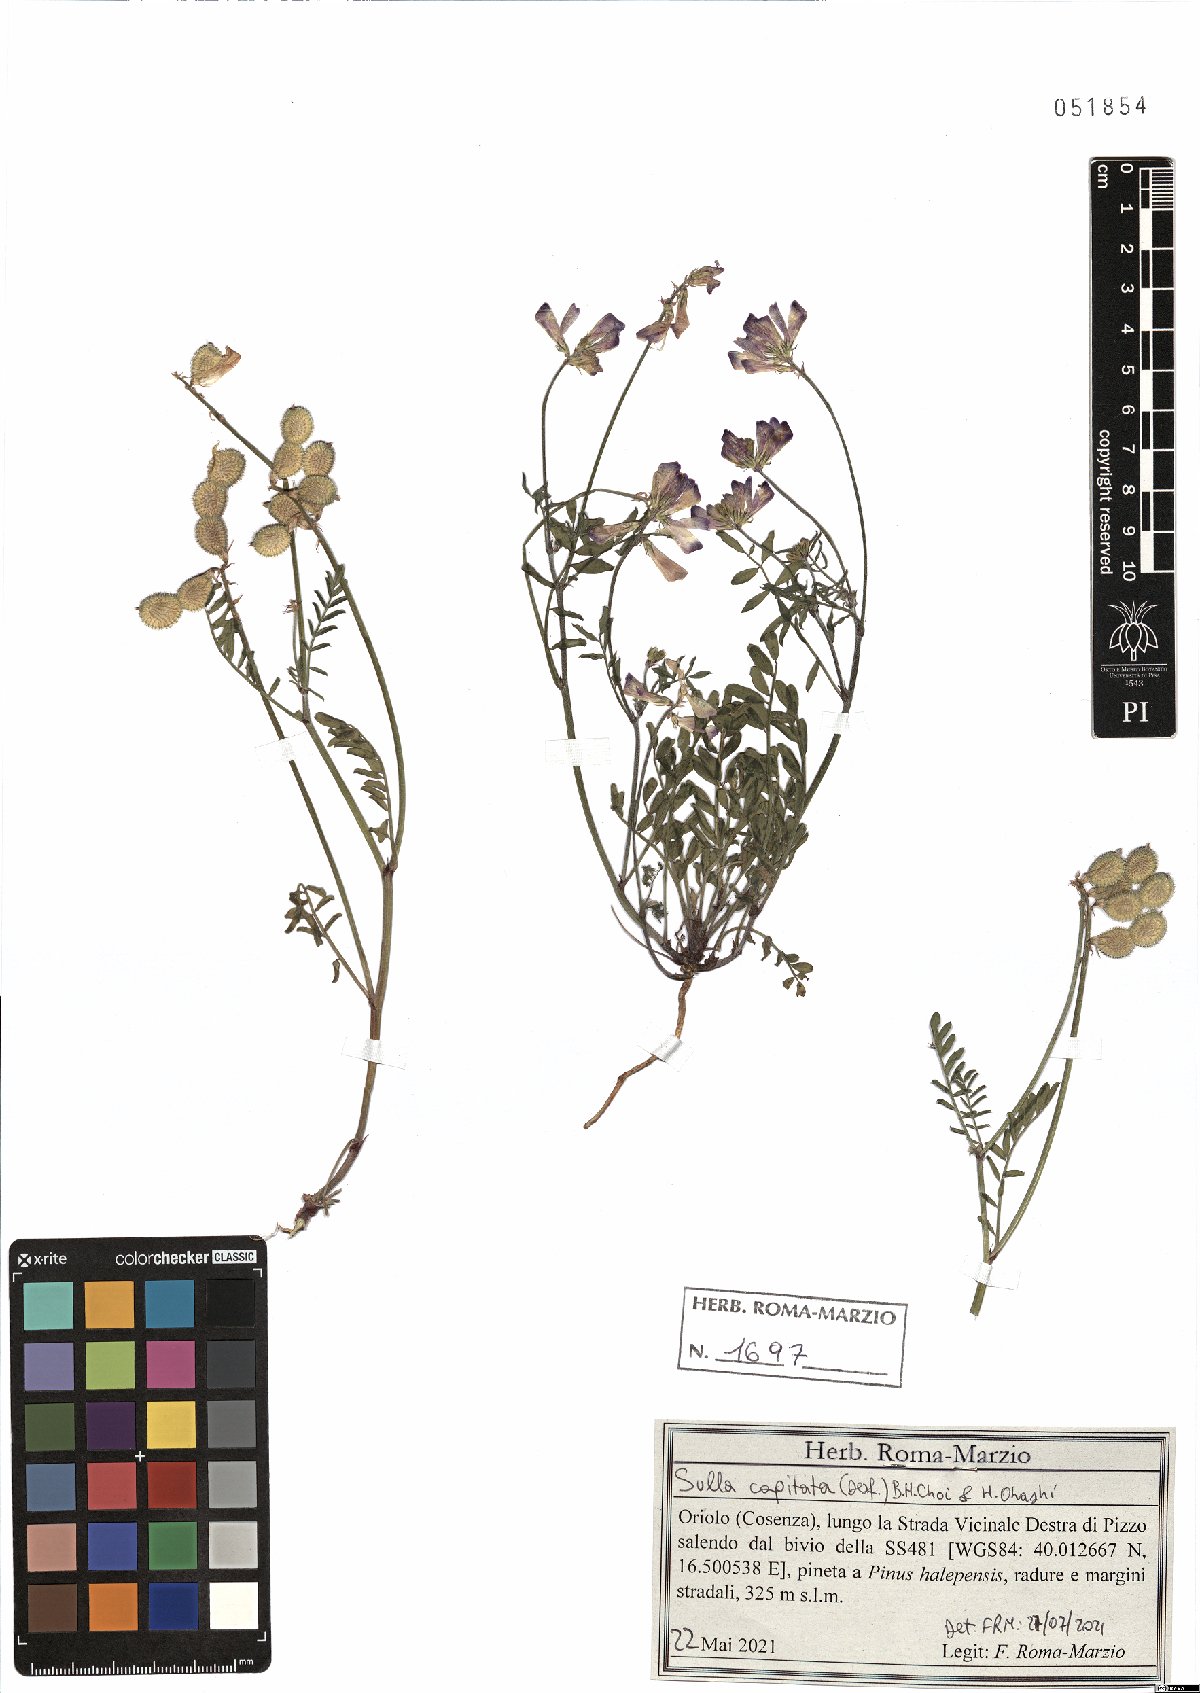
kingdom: Plantae
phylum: Tracheophyta
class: Magnoliopsida
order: Fabales
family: Fabaceae
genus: Sulla
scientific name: Sulla glomerata
